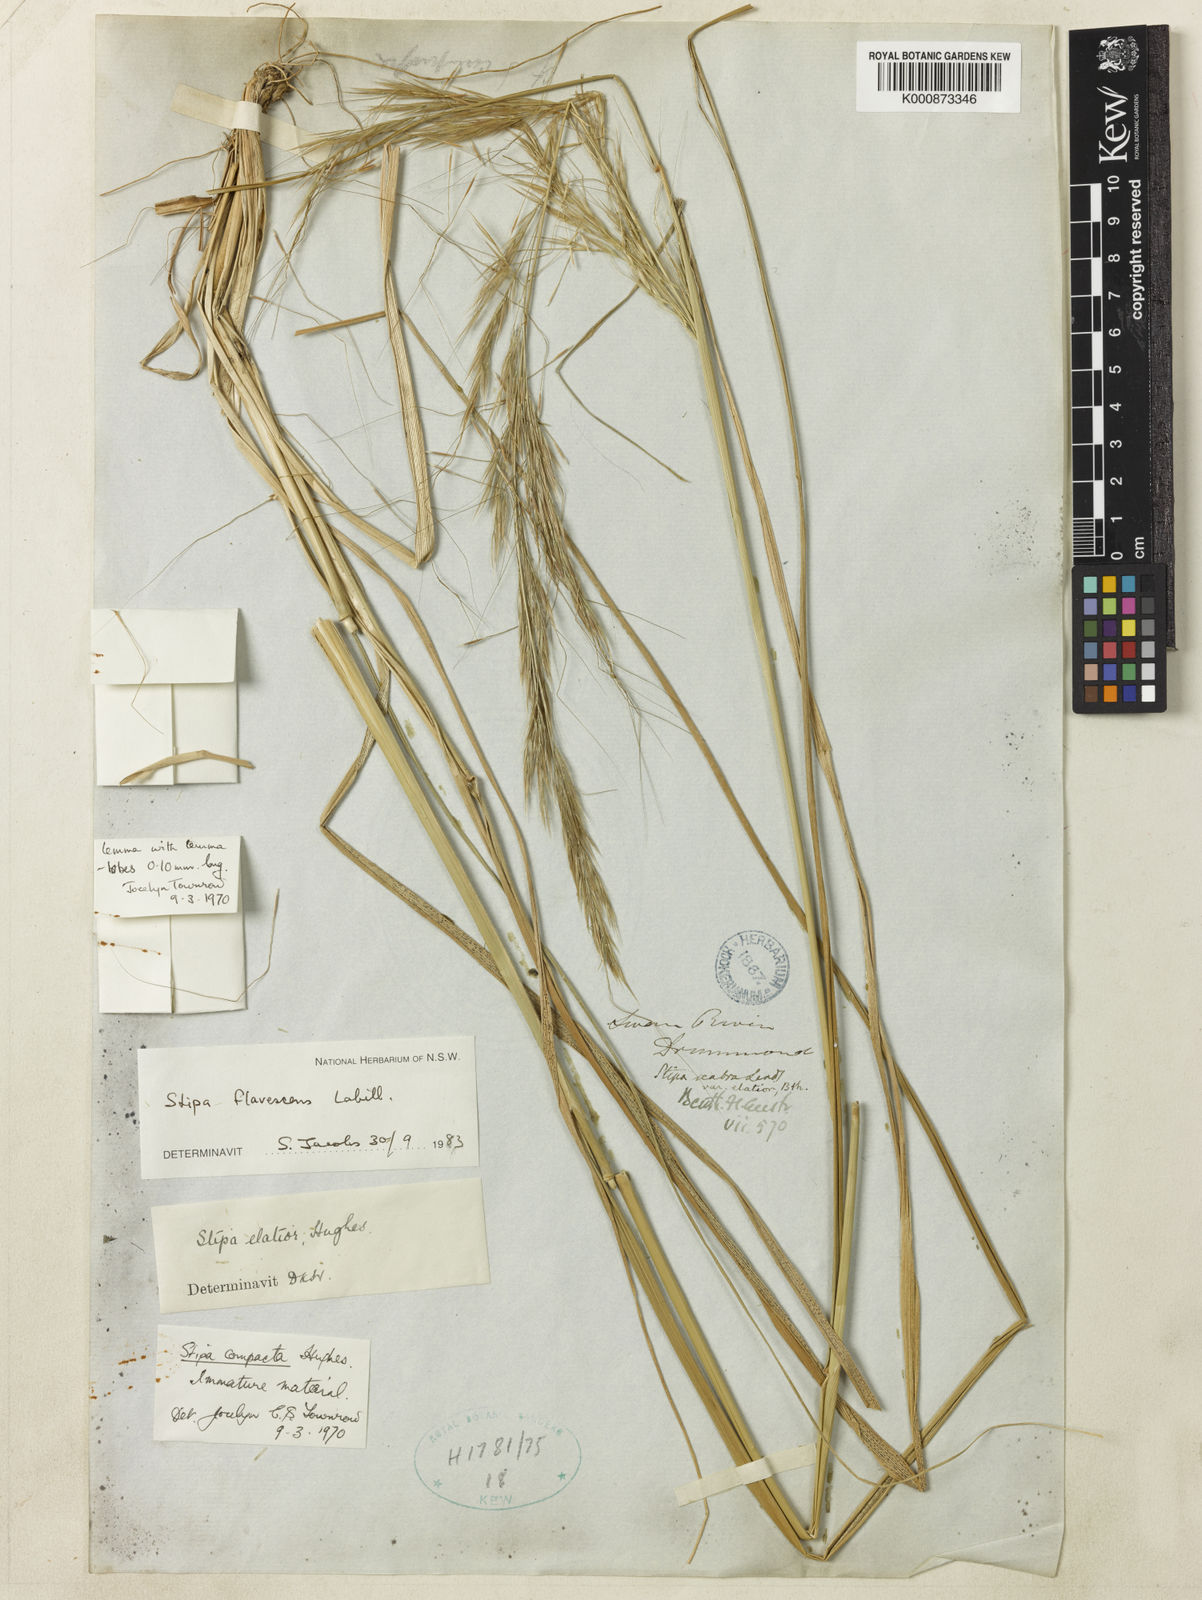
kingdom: Plantae
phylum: Tracheophyta
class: Liliopsida
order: Poales
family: Poaceae
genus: Austrostipa
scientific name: Austrostipa flavescens
